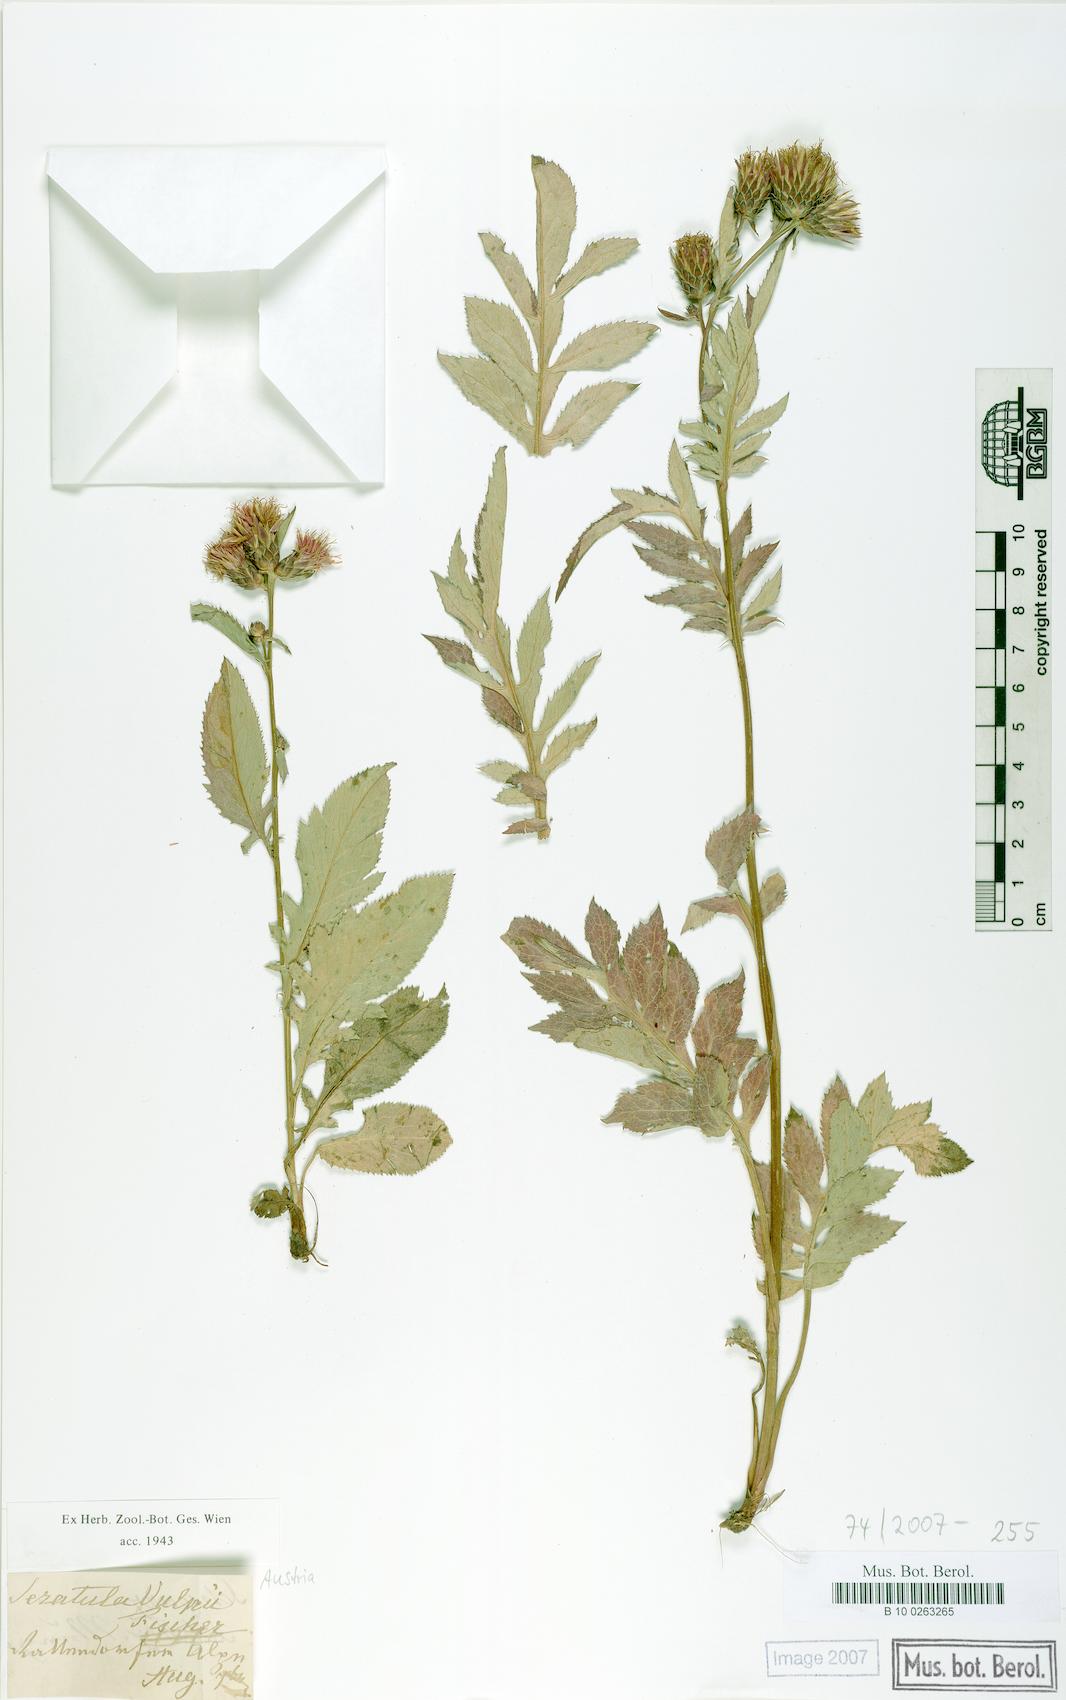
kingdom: Plantae
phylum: Tracheophyta
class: Magnoliopsida
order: Asterales
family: Asteraceae
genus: Serratula
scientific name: Serratula tinctoria
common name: Saw-wort
